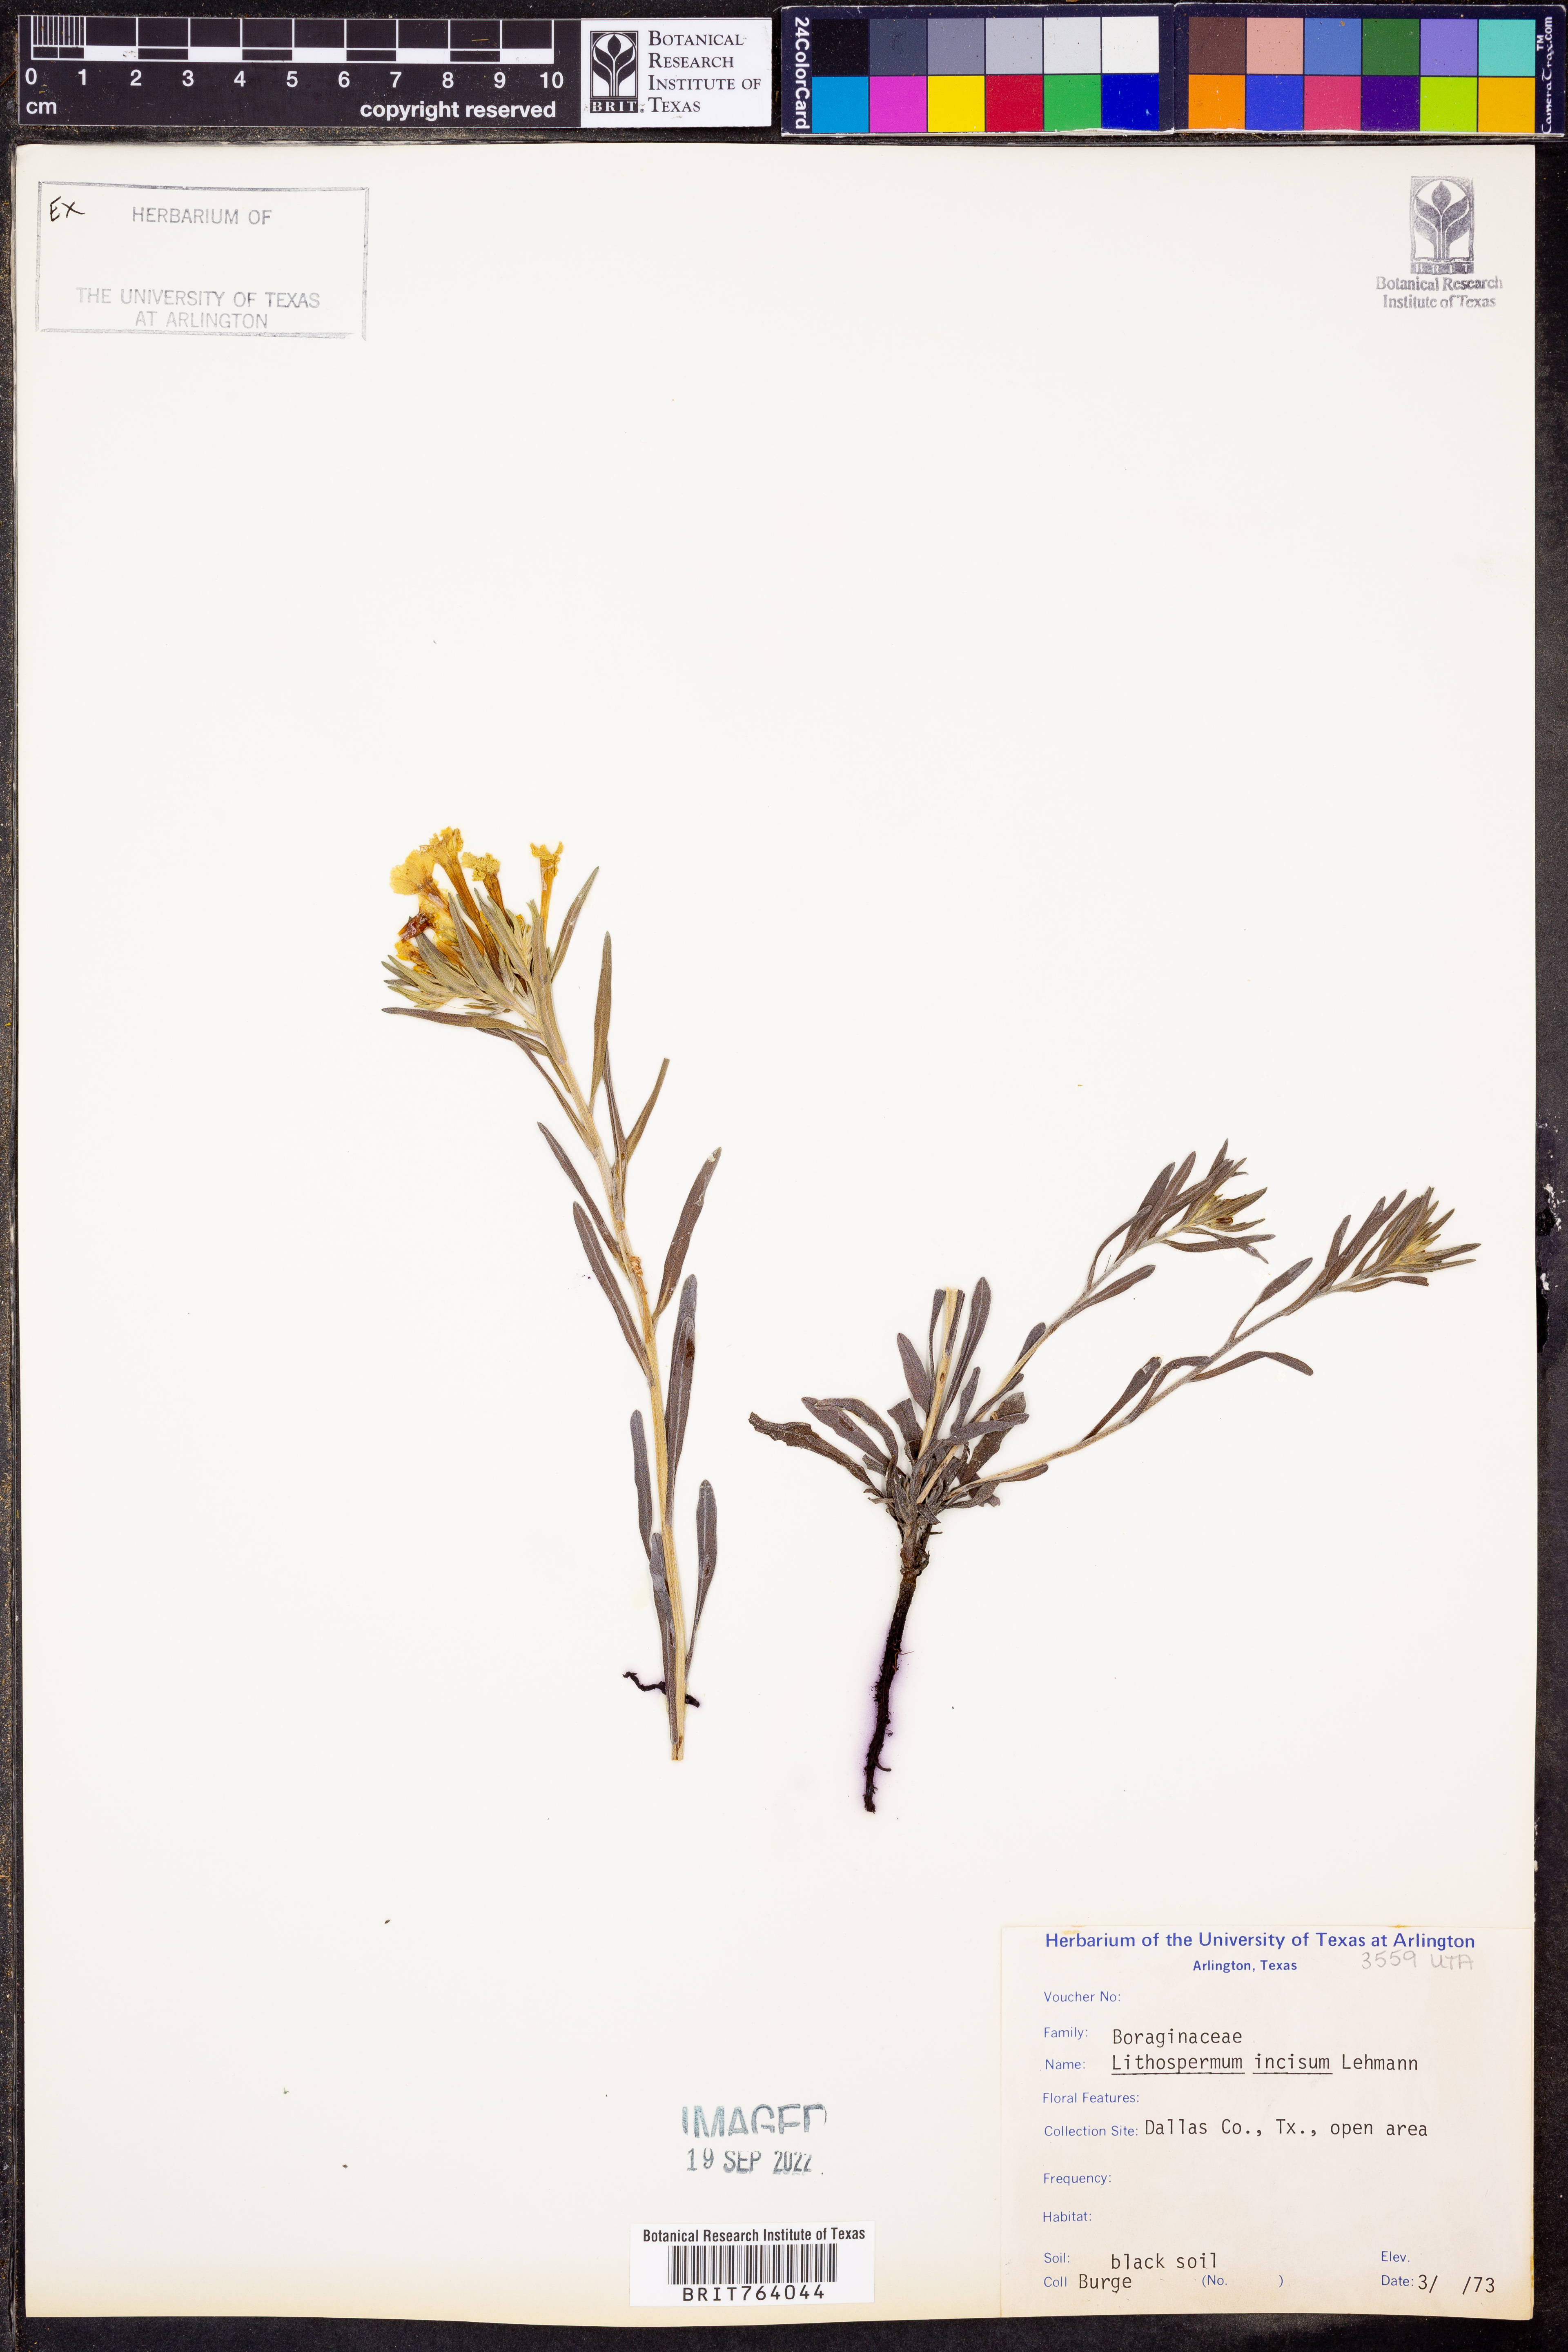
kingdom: Plantae
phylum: Tracheophyta
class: Magnoliopsida
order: Boraginales
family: Boraginaceae
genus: Lithospermum
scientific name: Lithospermum incisum
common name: Fringed gromwell
